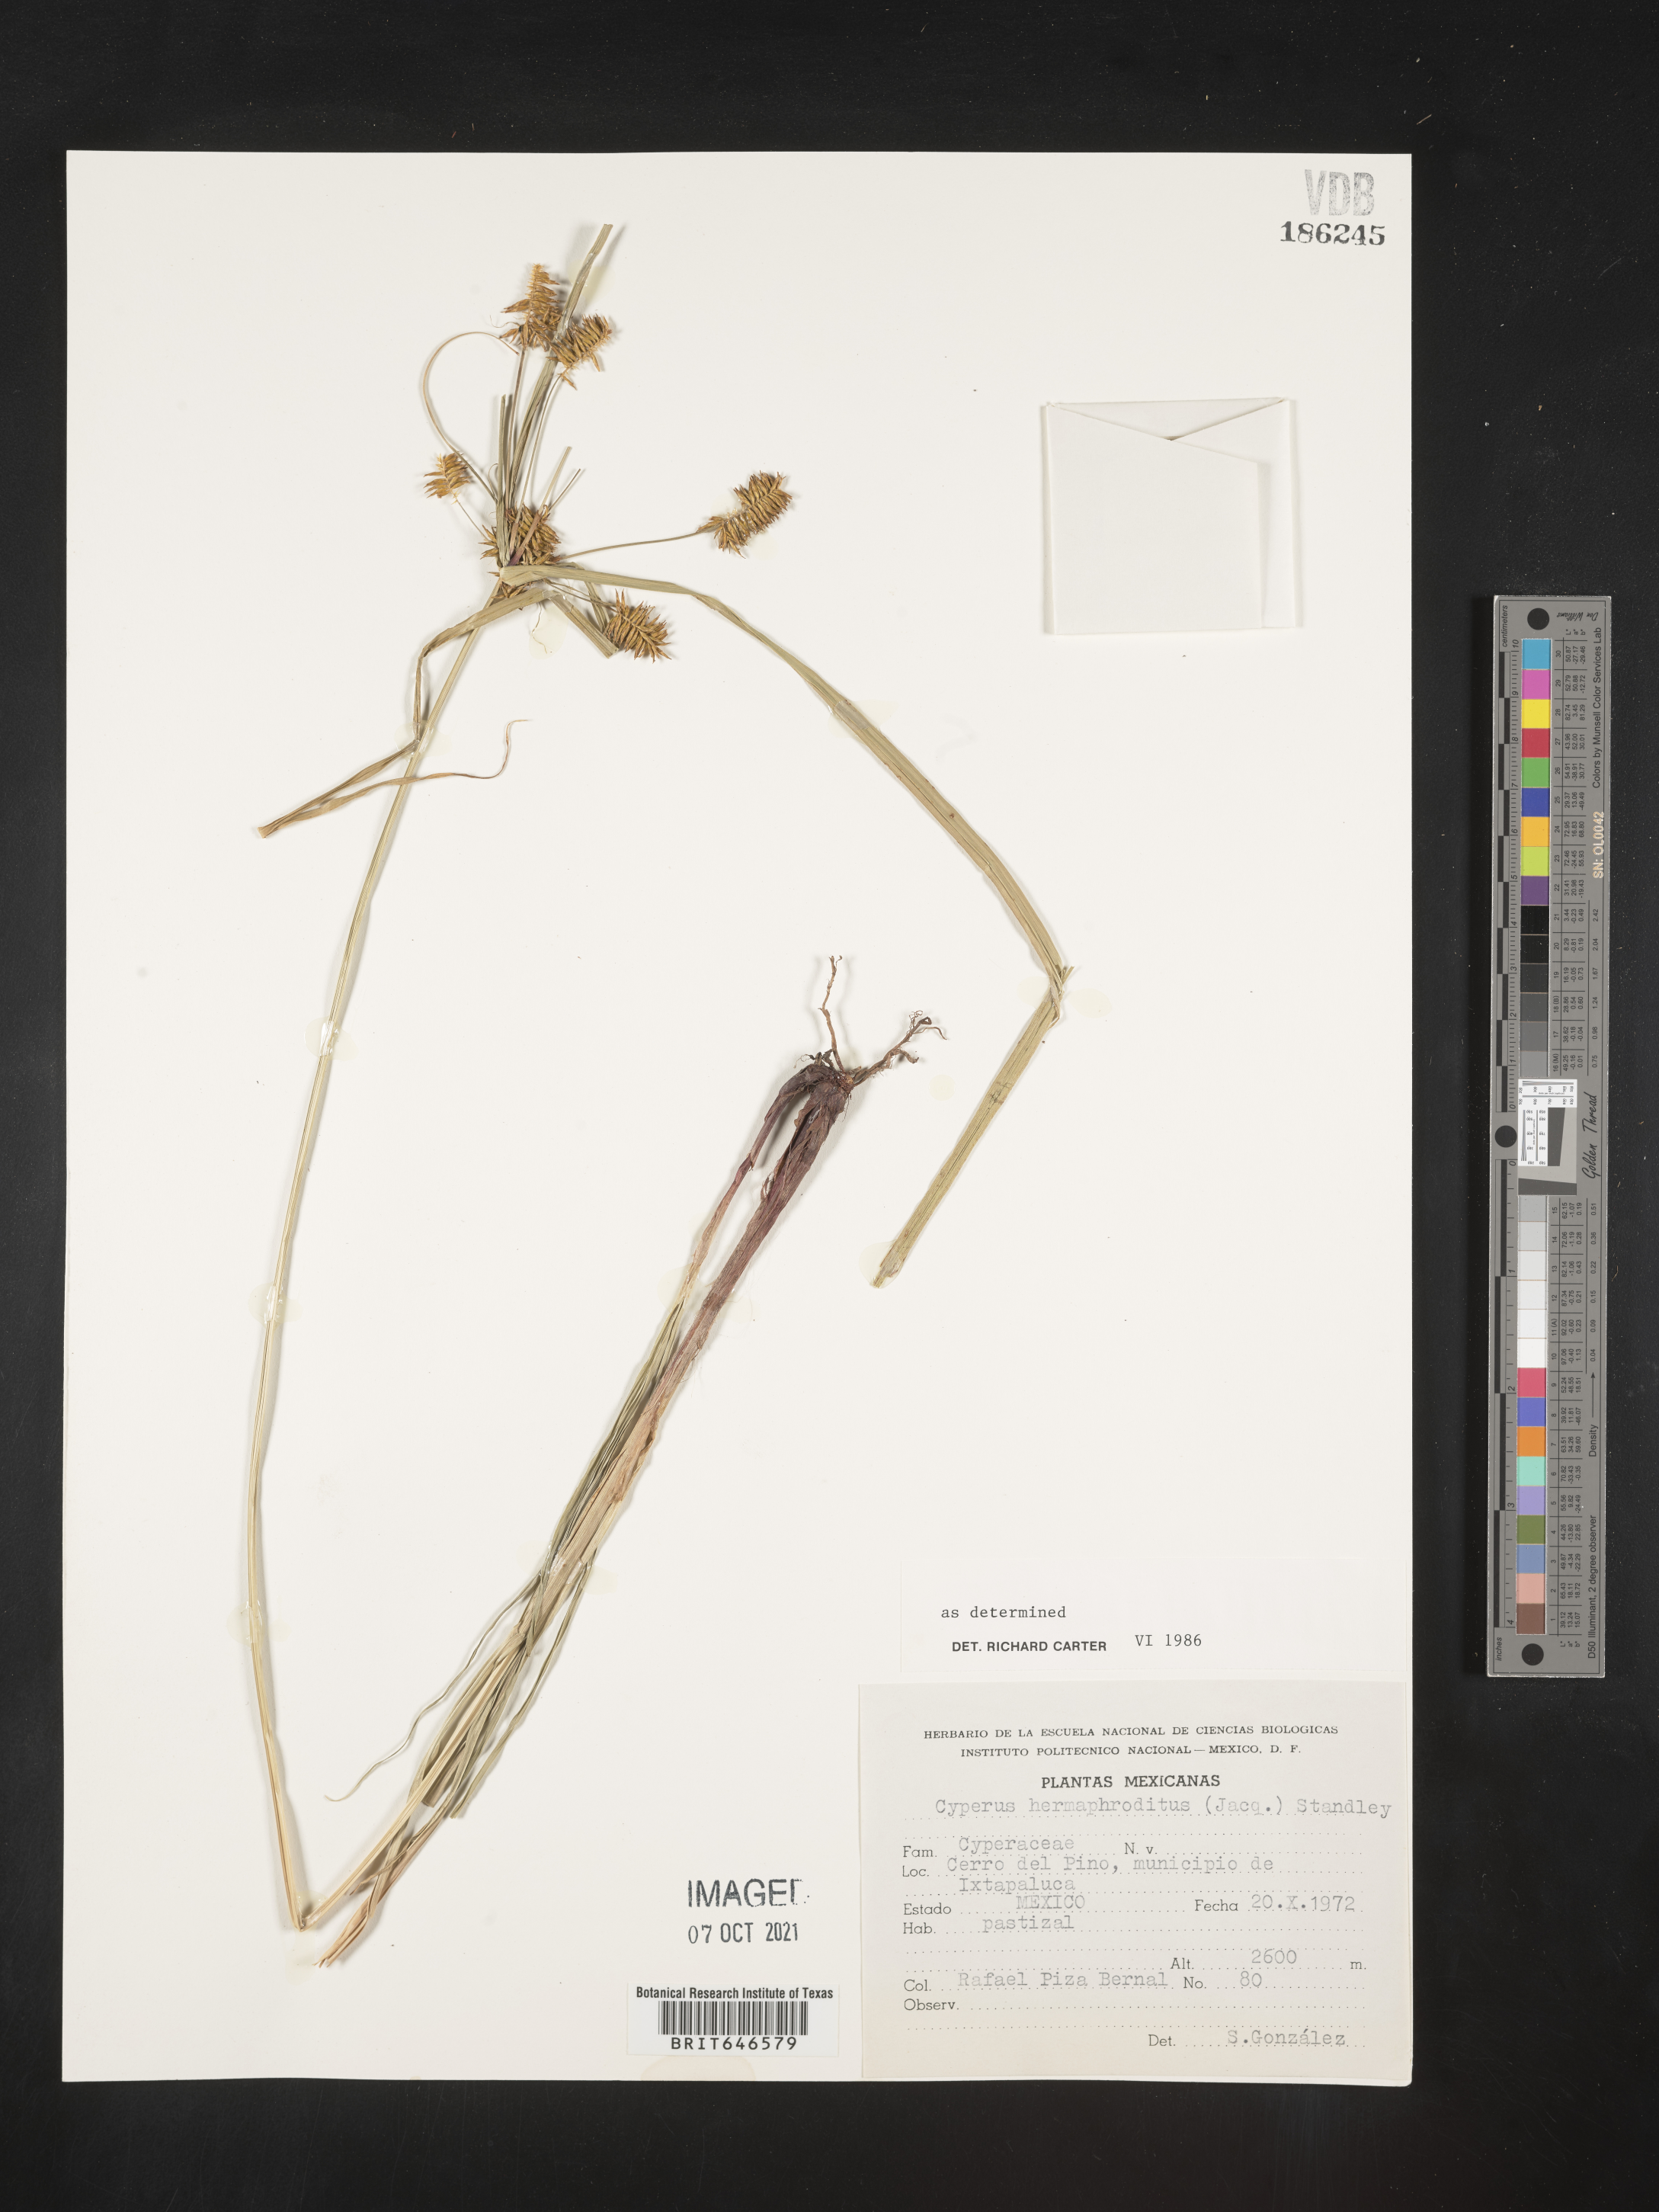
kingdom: Plantae
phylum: Tracheophyta
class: Liliopsida
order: Poales
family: Cyperaceae
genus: Cyperus
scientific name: Cyperus
